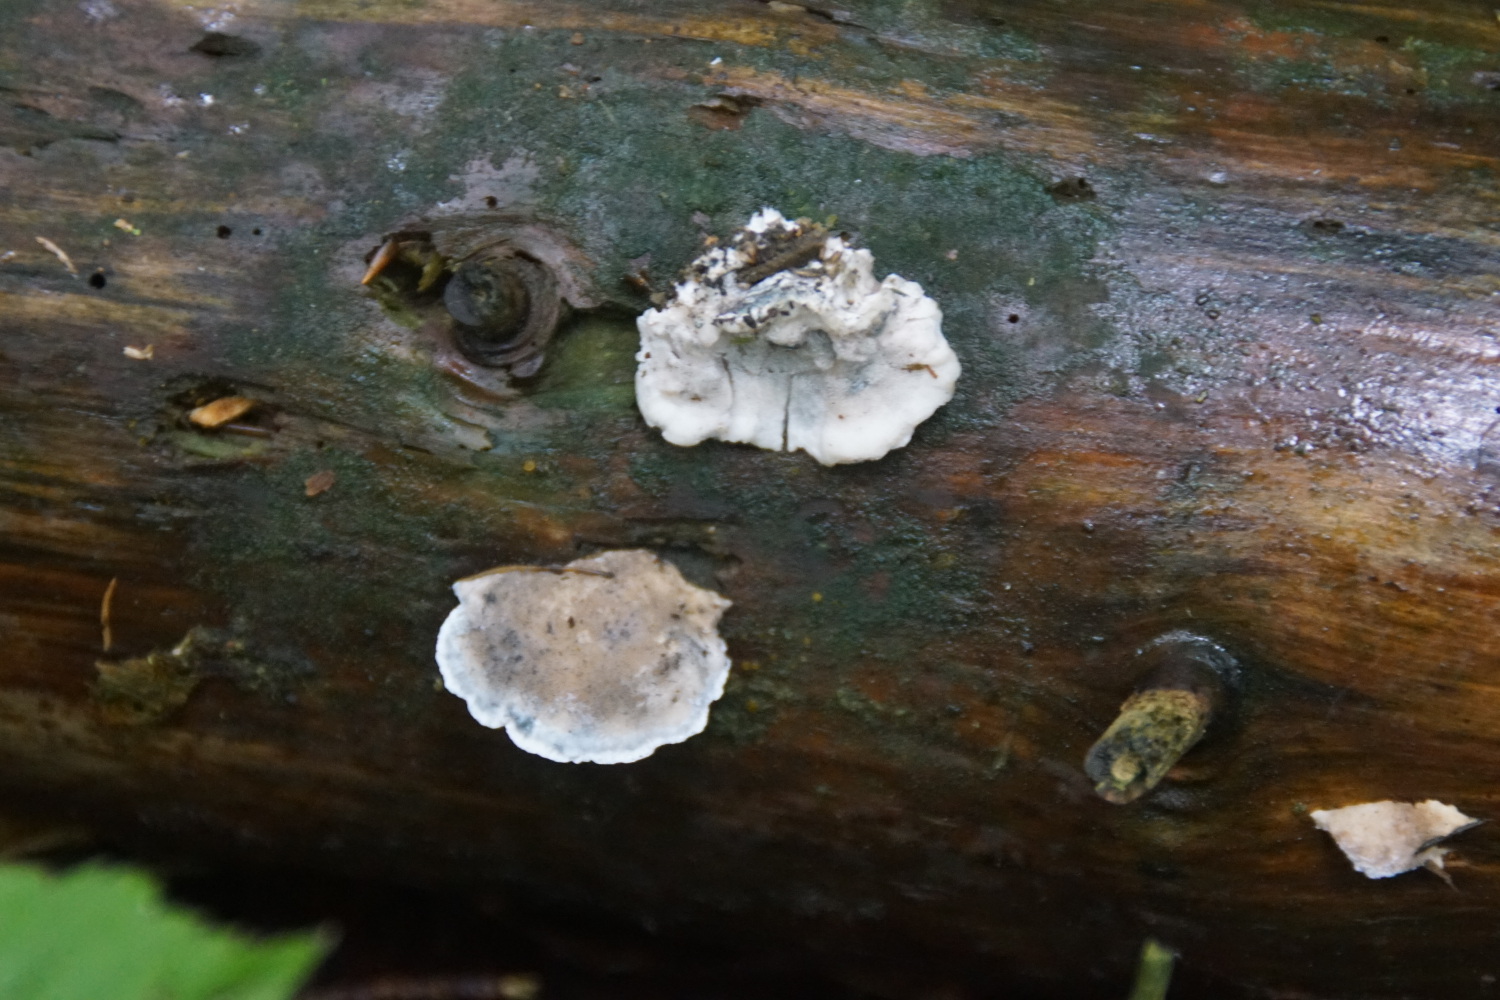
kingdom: Fungi
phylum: Basidiomycota
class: Agaricomycetes
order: Polyporales
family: Polyporaceae
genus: Cyanosporus
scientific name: Cyanosporus caesius
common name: blålig kødporesvamp
